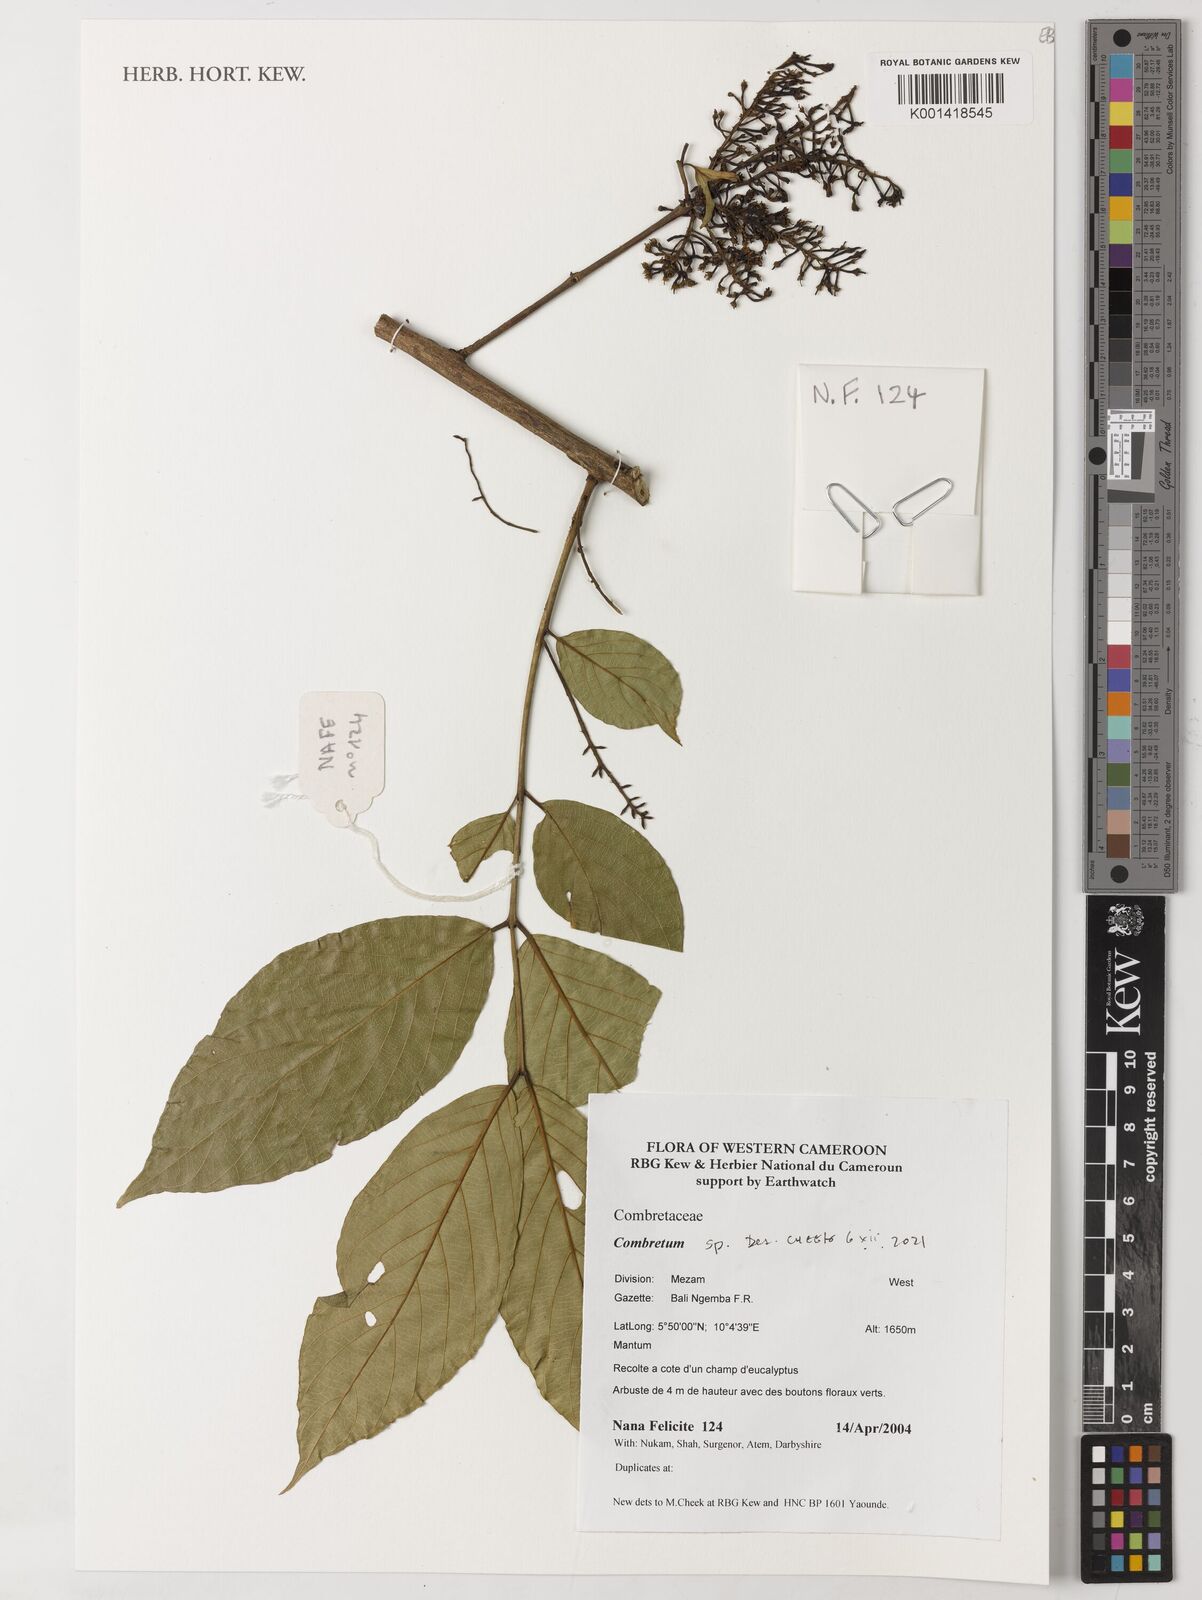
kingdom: Plantae
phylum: Tracheophyta
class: Magnoliopsida
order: Myrtales
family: Combretaceae
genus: Combretum
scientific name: Combretum
